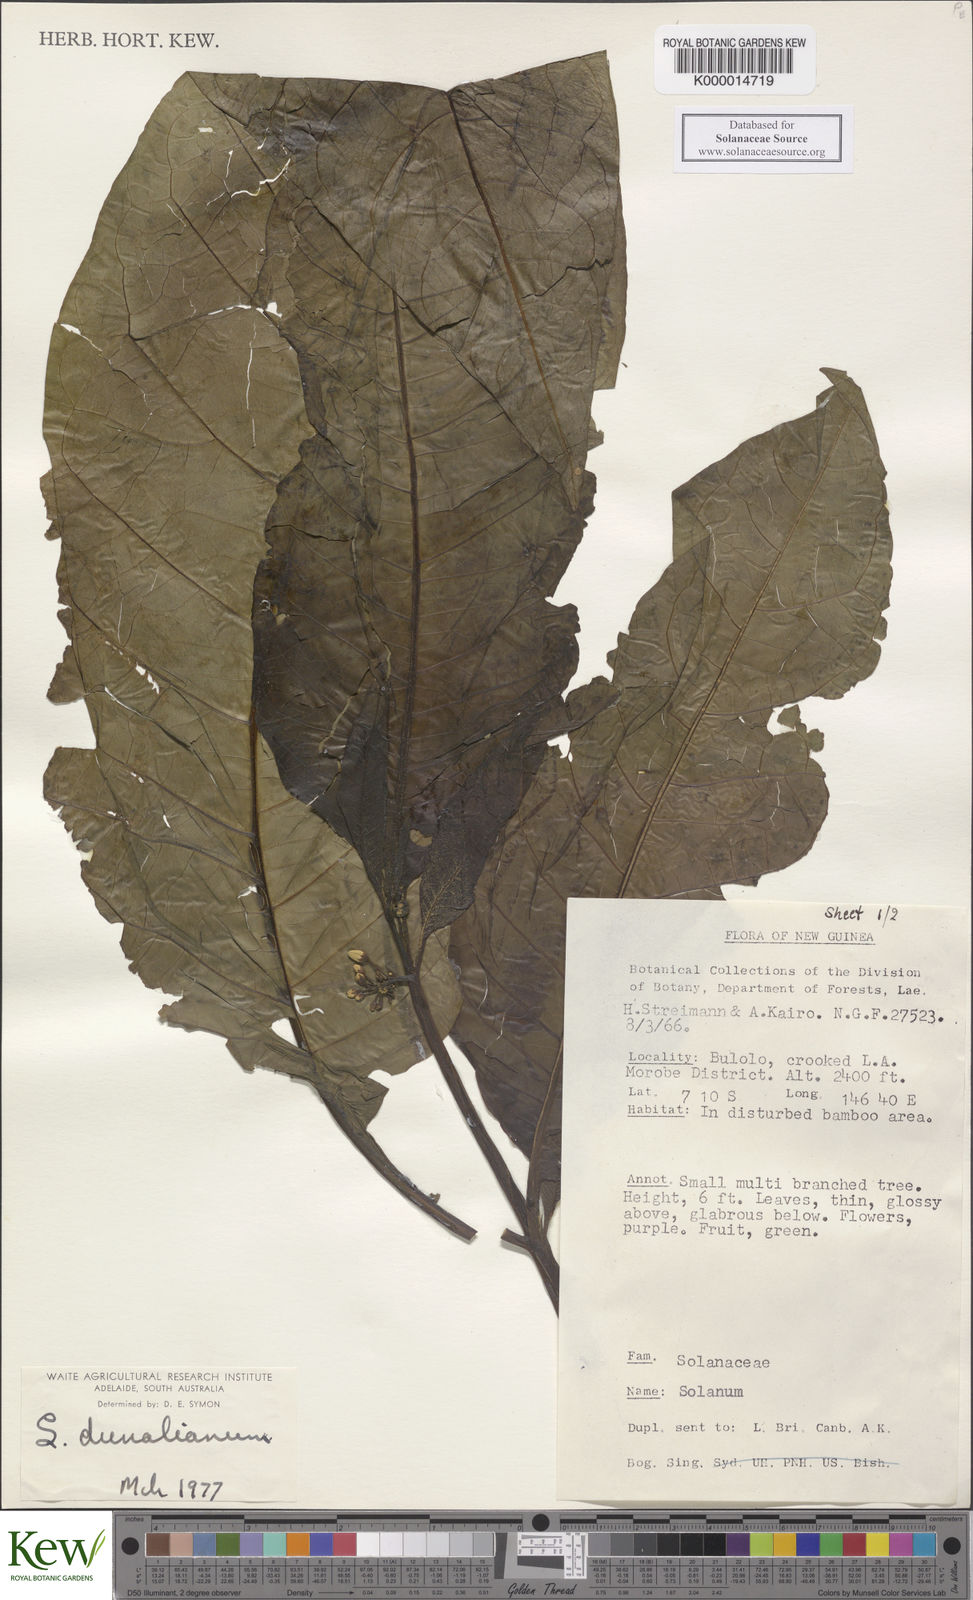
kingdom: Plantae
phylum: Tracheophyta
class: Magnoliopsida
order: Solanales
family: Solanaceae
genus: Solanum
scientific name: Solanum dunalianum
